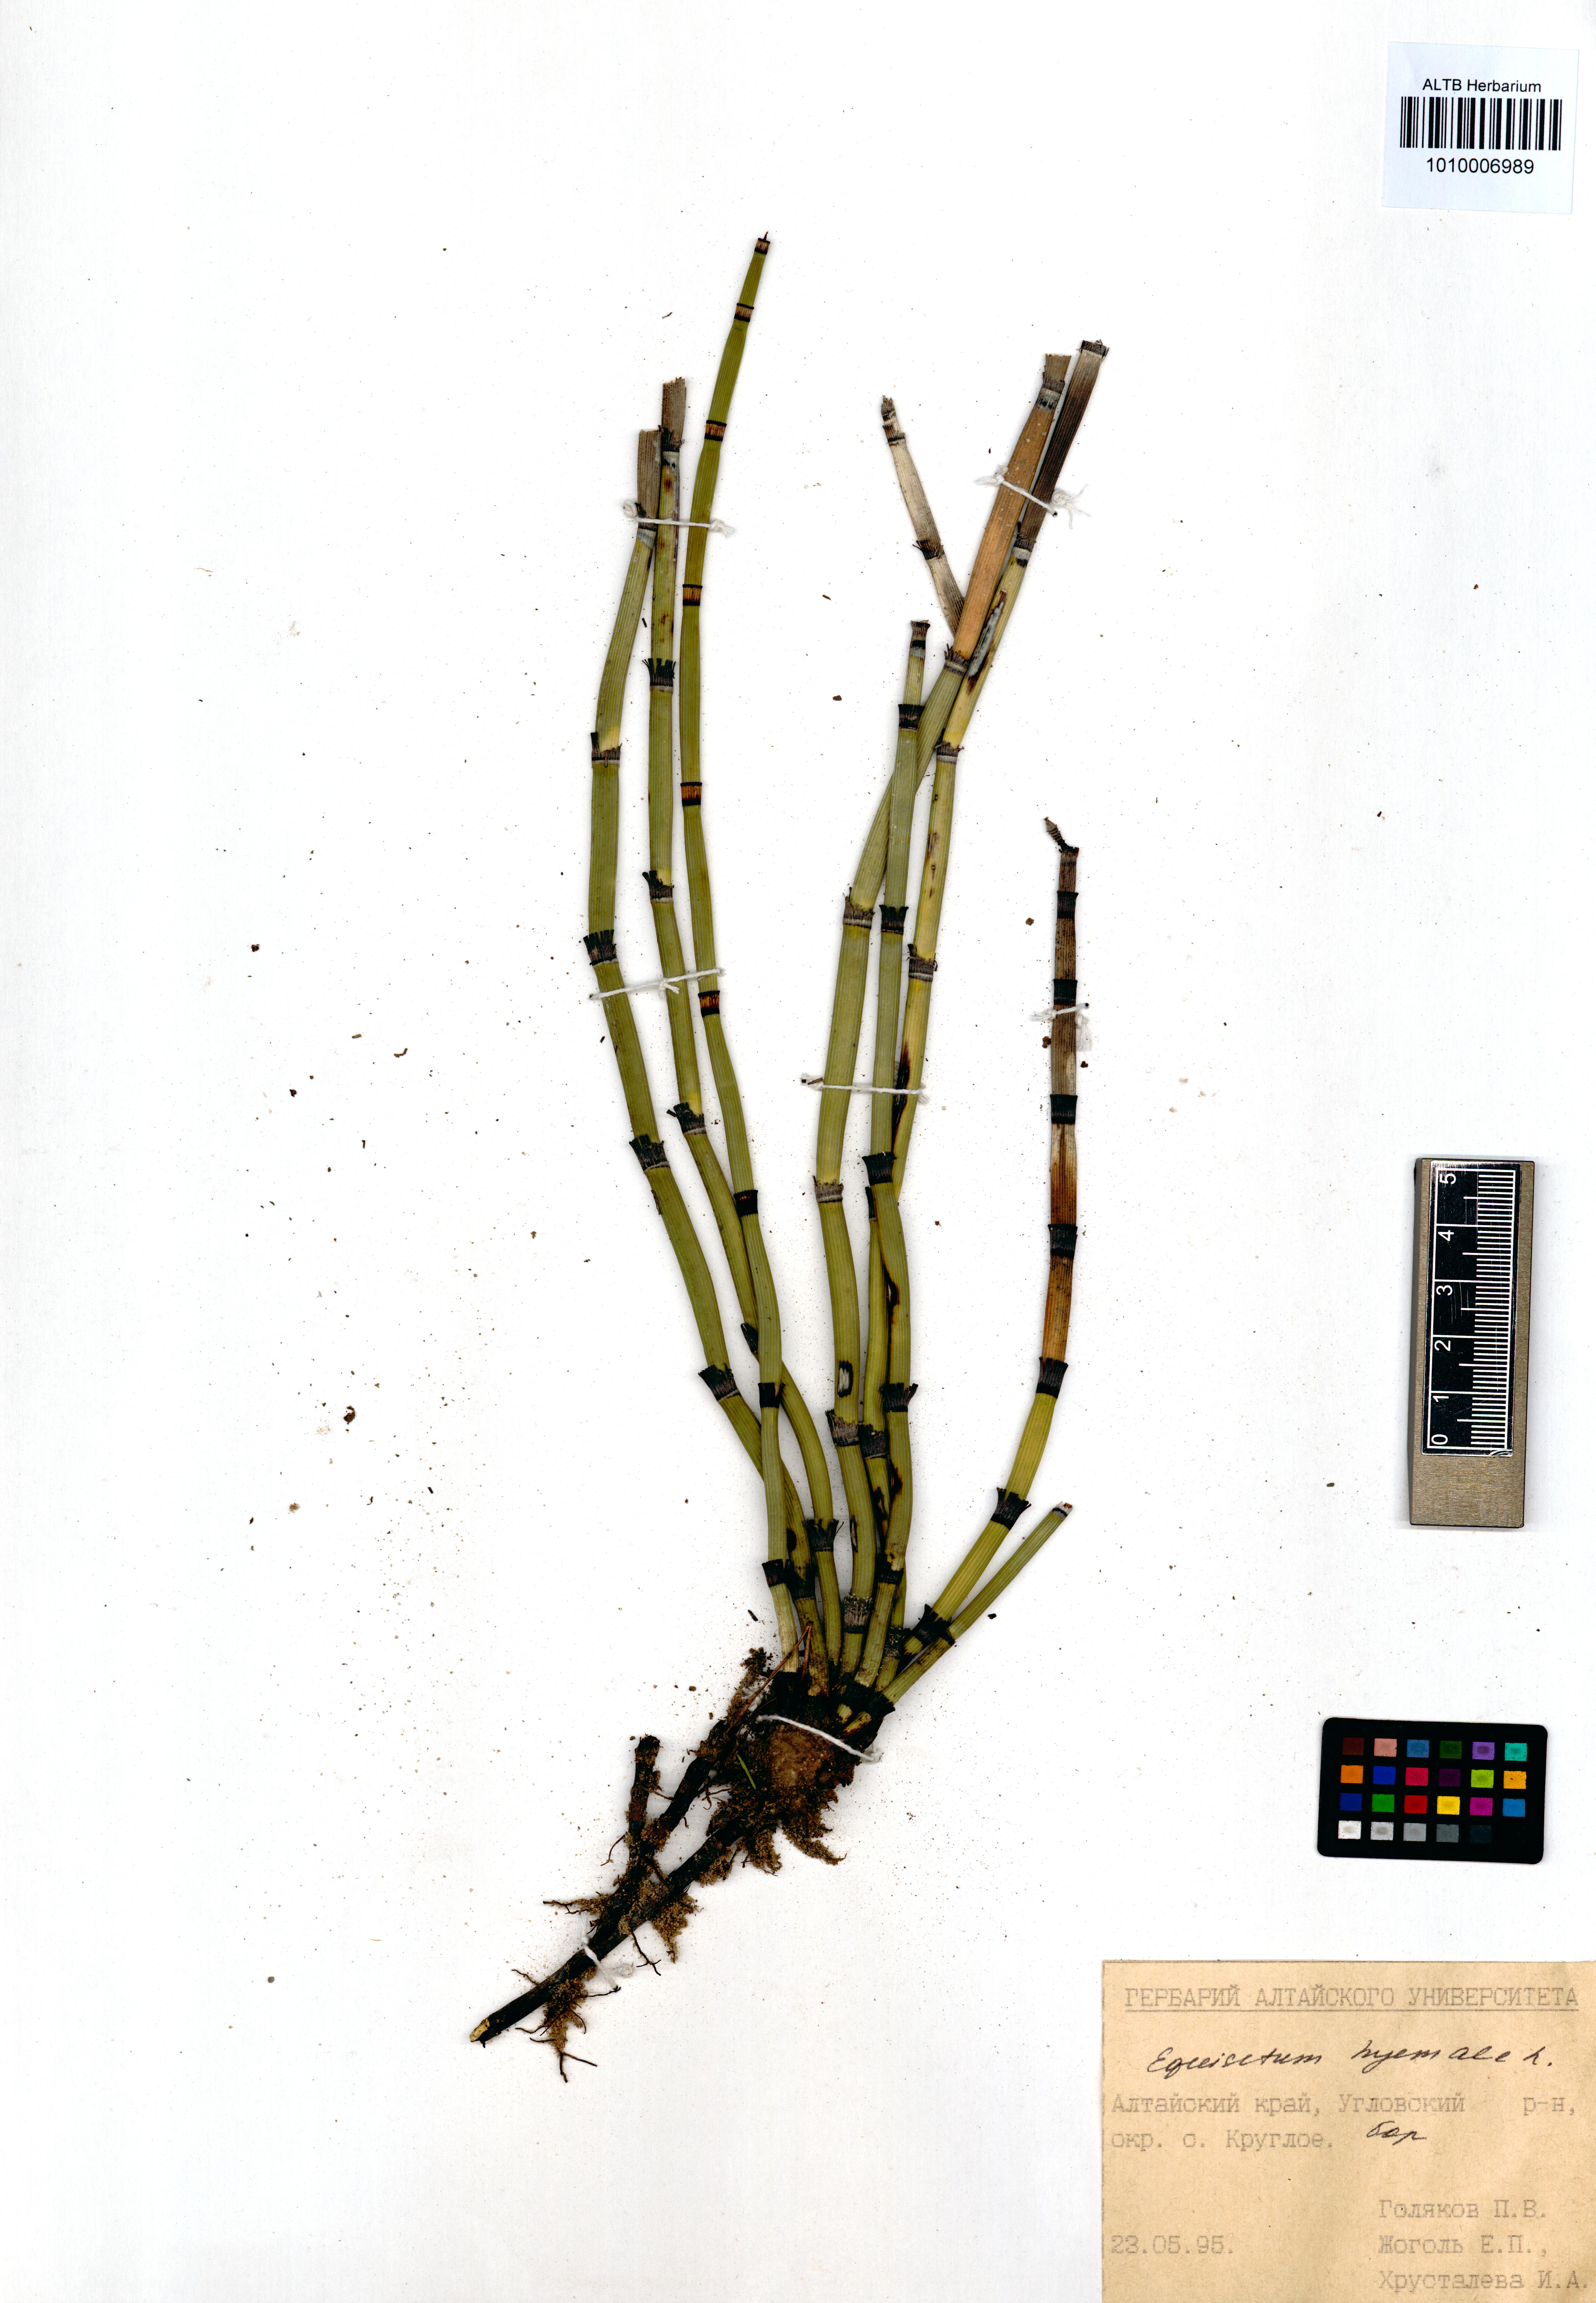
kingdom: Plantae
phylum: Tracheophyta
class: Polypodiopsida
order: Equisetales
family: Equisetaceae
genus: Equisetum
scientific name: Equisetum hyemale
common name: Rough horsetail
